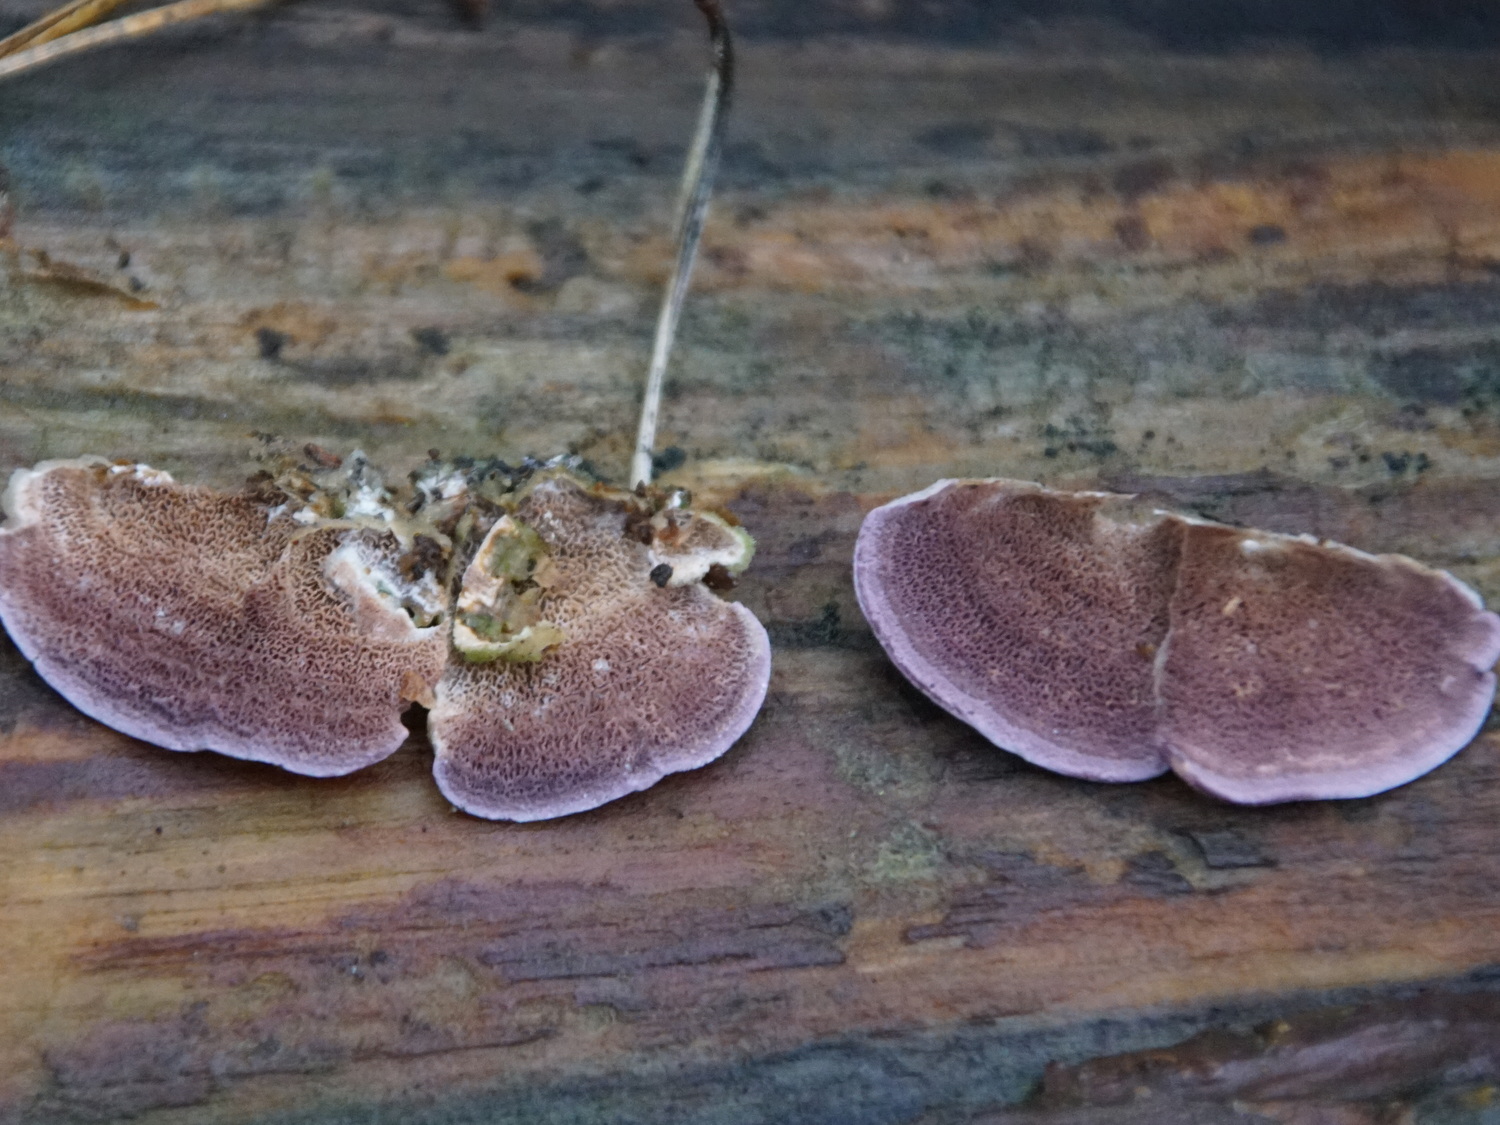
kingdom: Fungi
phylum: Basidiomycota
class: Agaricomycetes
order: Hymenochaetales
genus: Trichaptum
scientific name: Trichaptum abietinum
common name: almindelig violporesvamp
